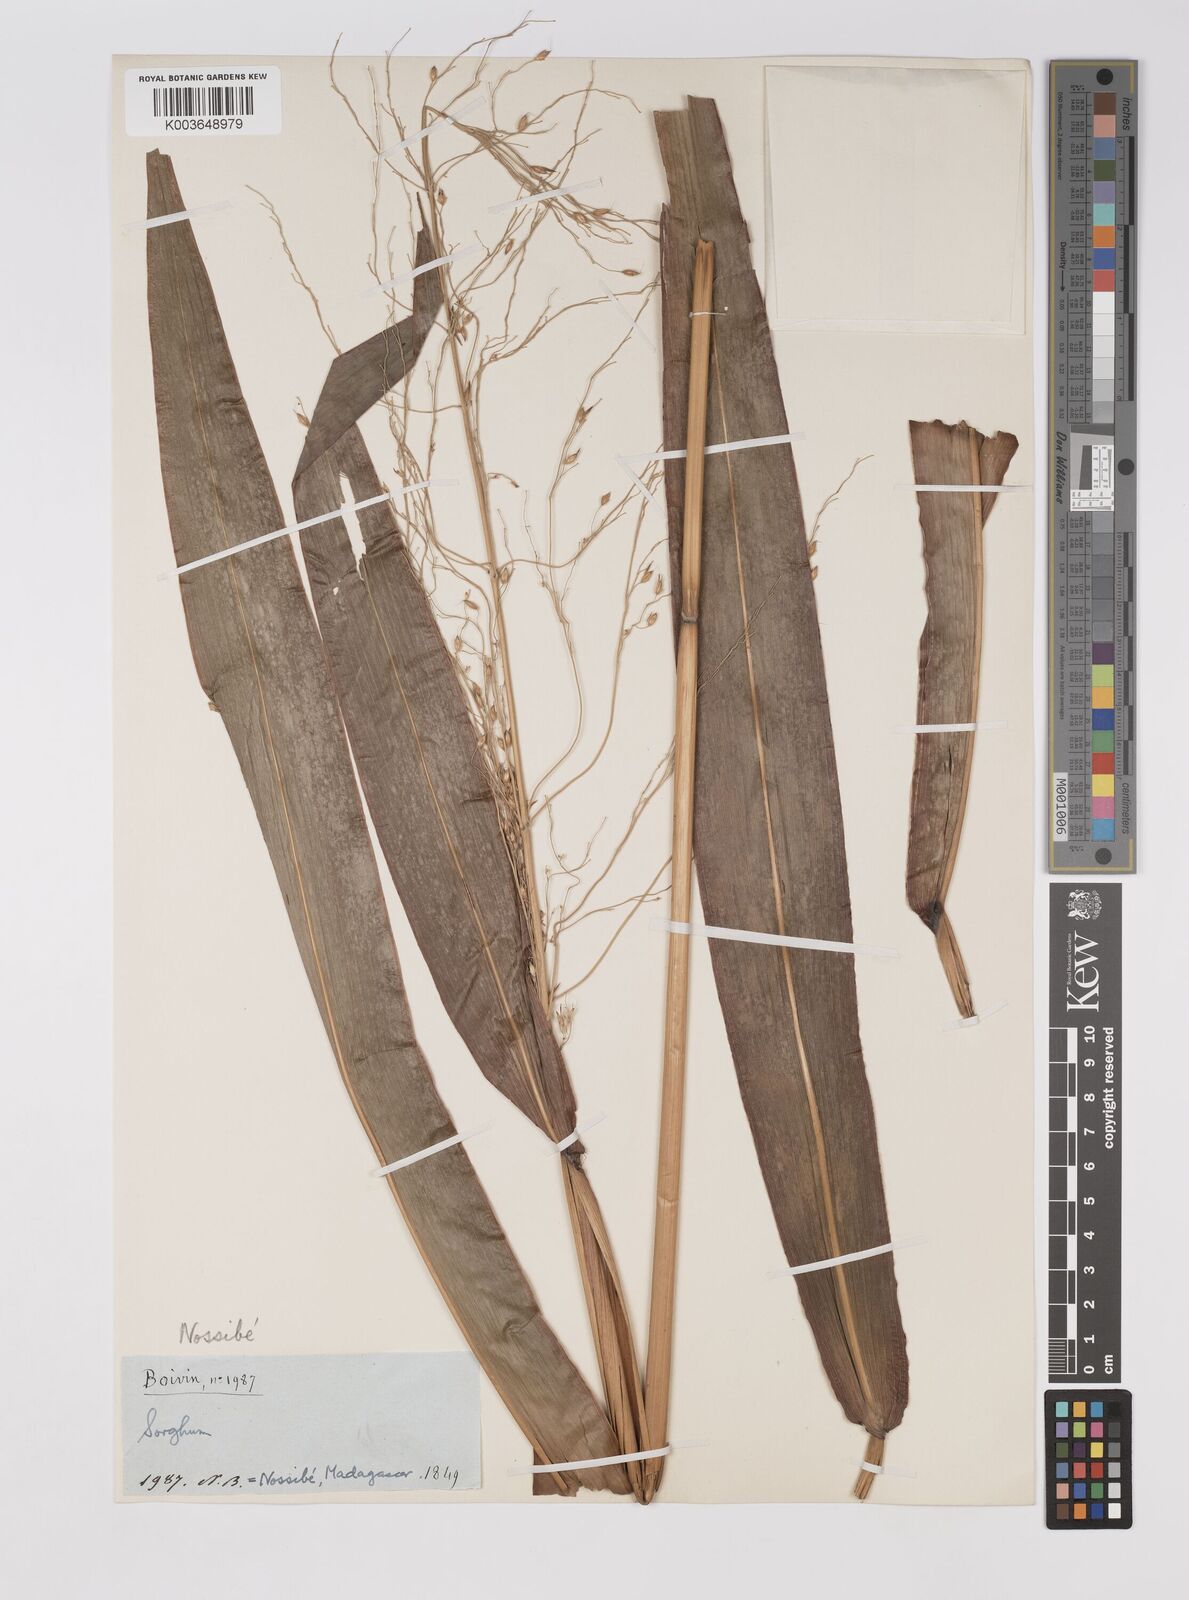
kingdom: Plantae
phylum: Tracheophyta
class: Liliopsida
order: Poales
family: Poaceae
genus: Sorghum
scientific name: Sorghum arundinaceum
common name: Sorghum
